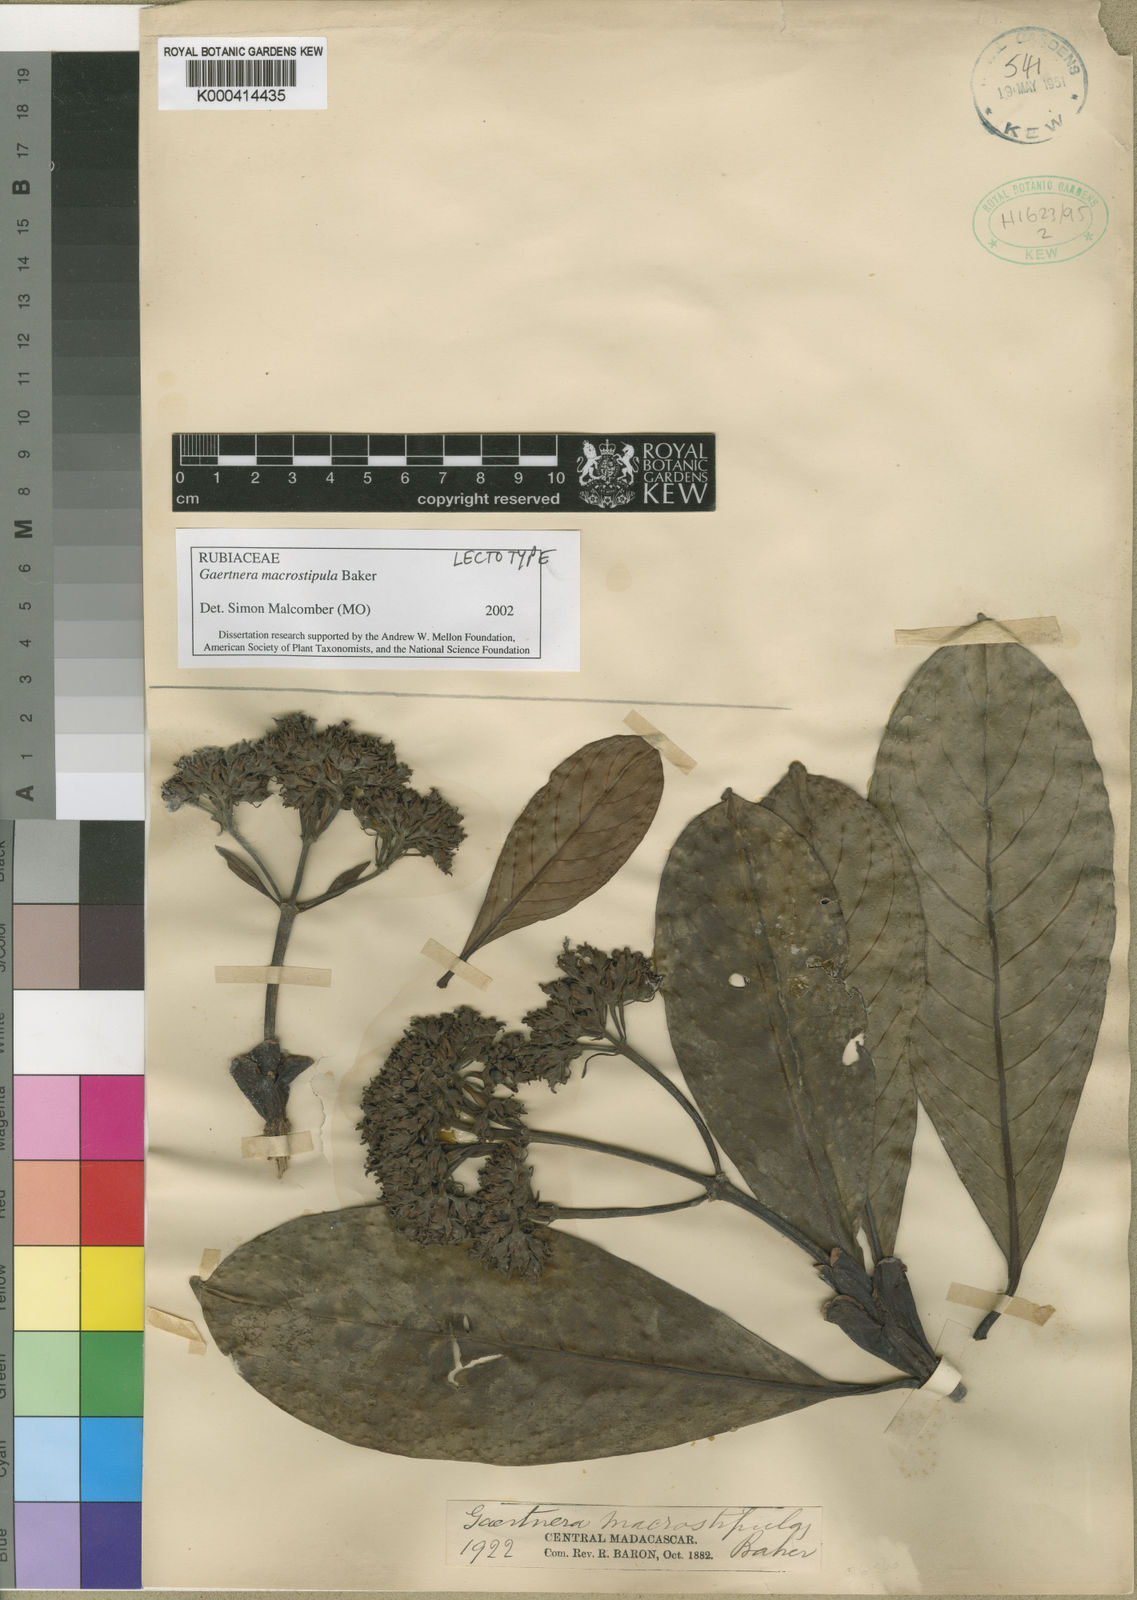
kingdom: Plantae
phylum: Tracheophyta
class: Magnoliopsida
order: Gentianales
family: Rubiaceae
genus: Gaertnera
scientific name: Gaertnera macrostipula
